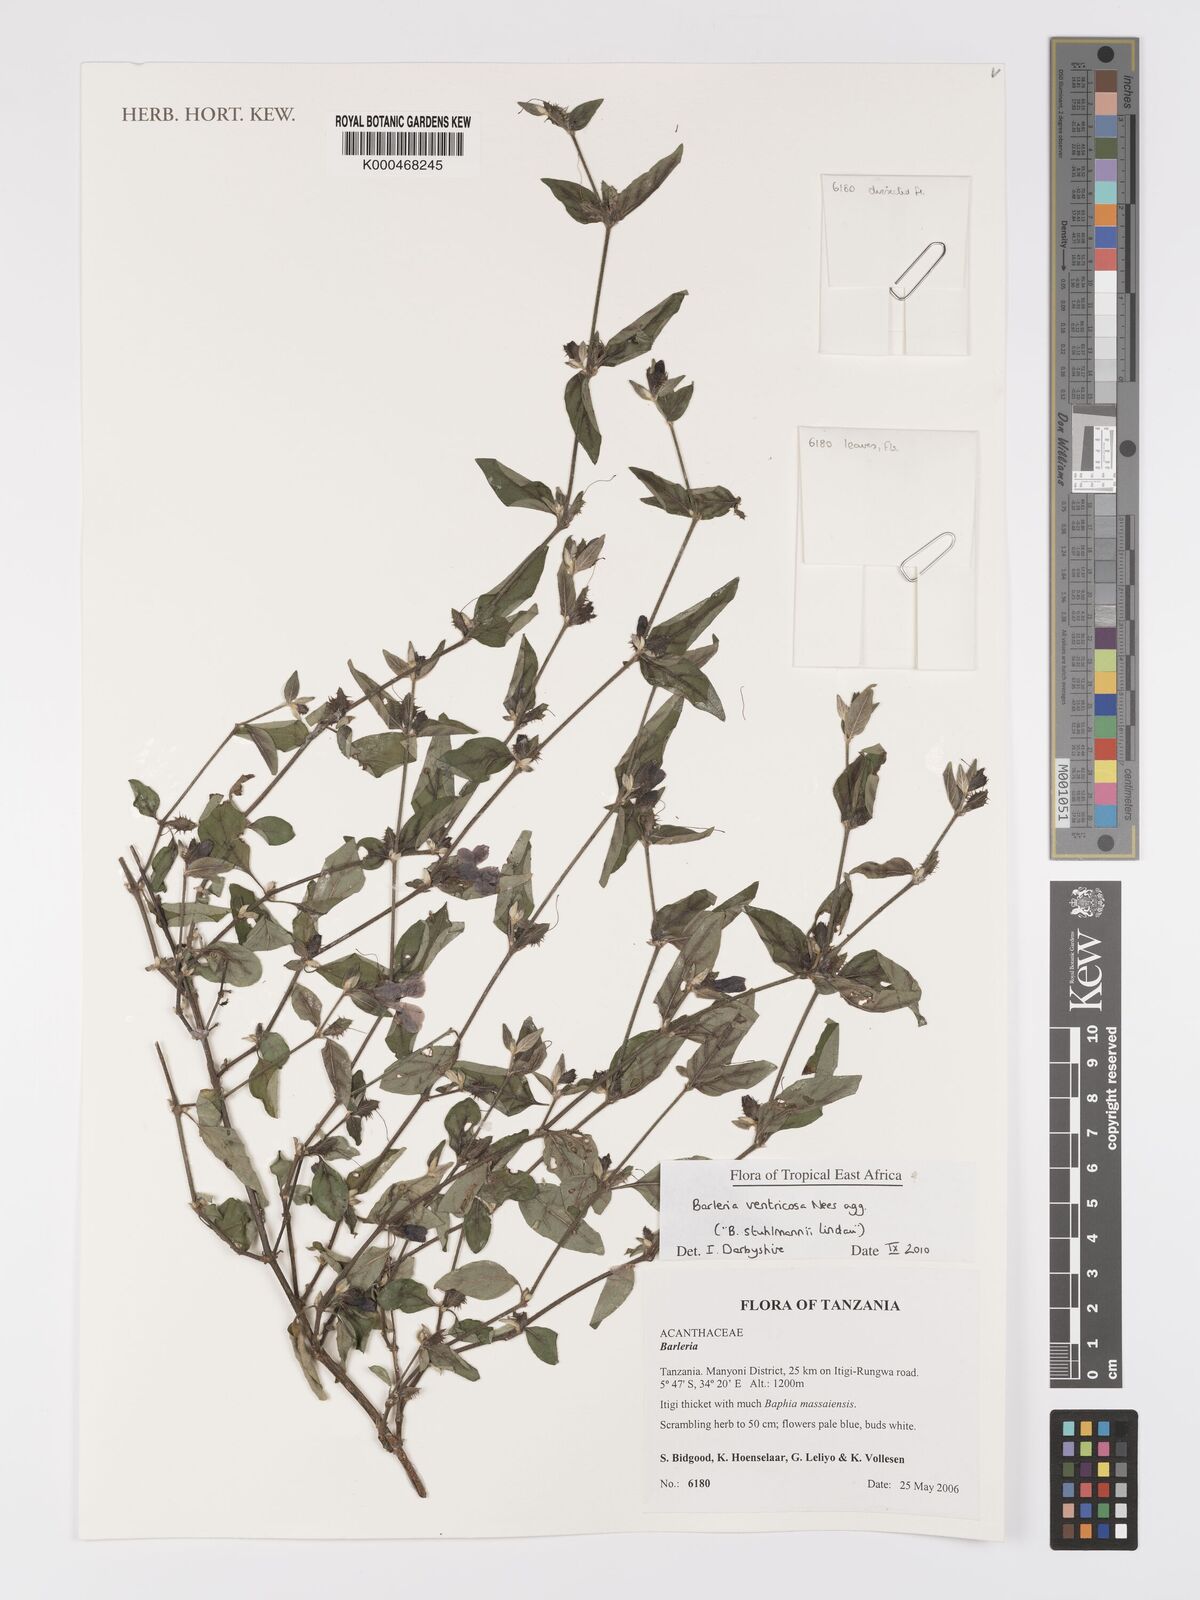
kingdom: Plantae
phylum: Tracheophyta
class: Magnoliopsida
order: Lamiales
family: Acanthaceae
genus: Barleria
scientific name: Barleria
